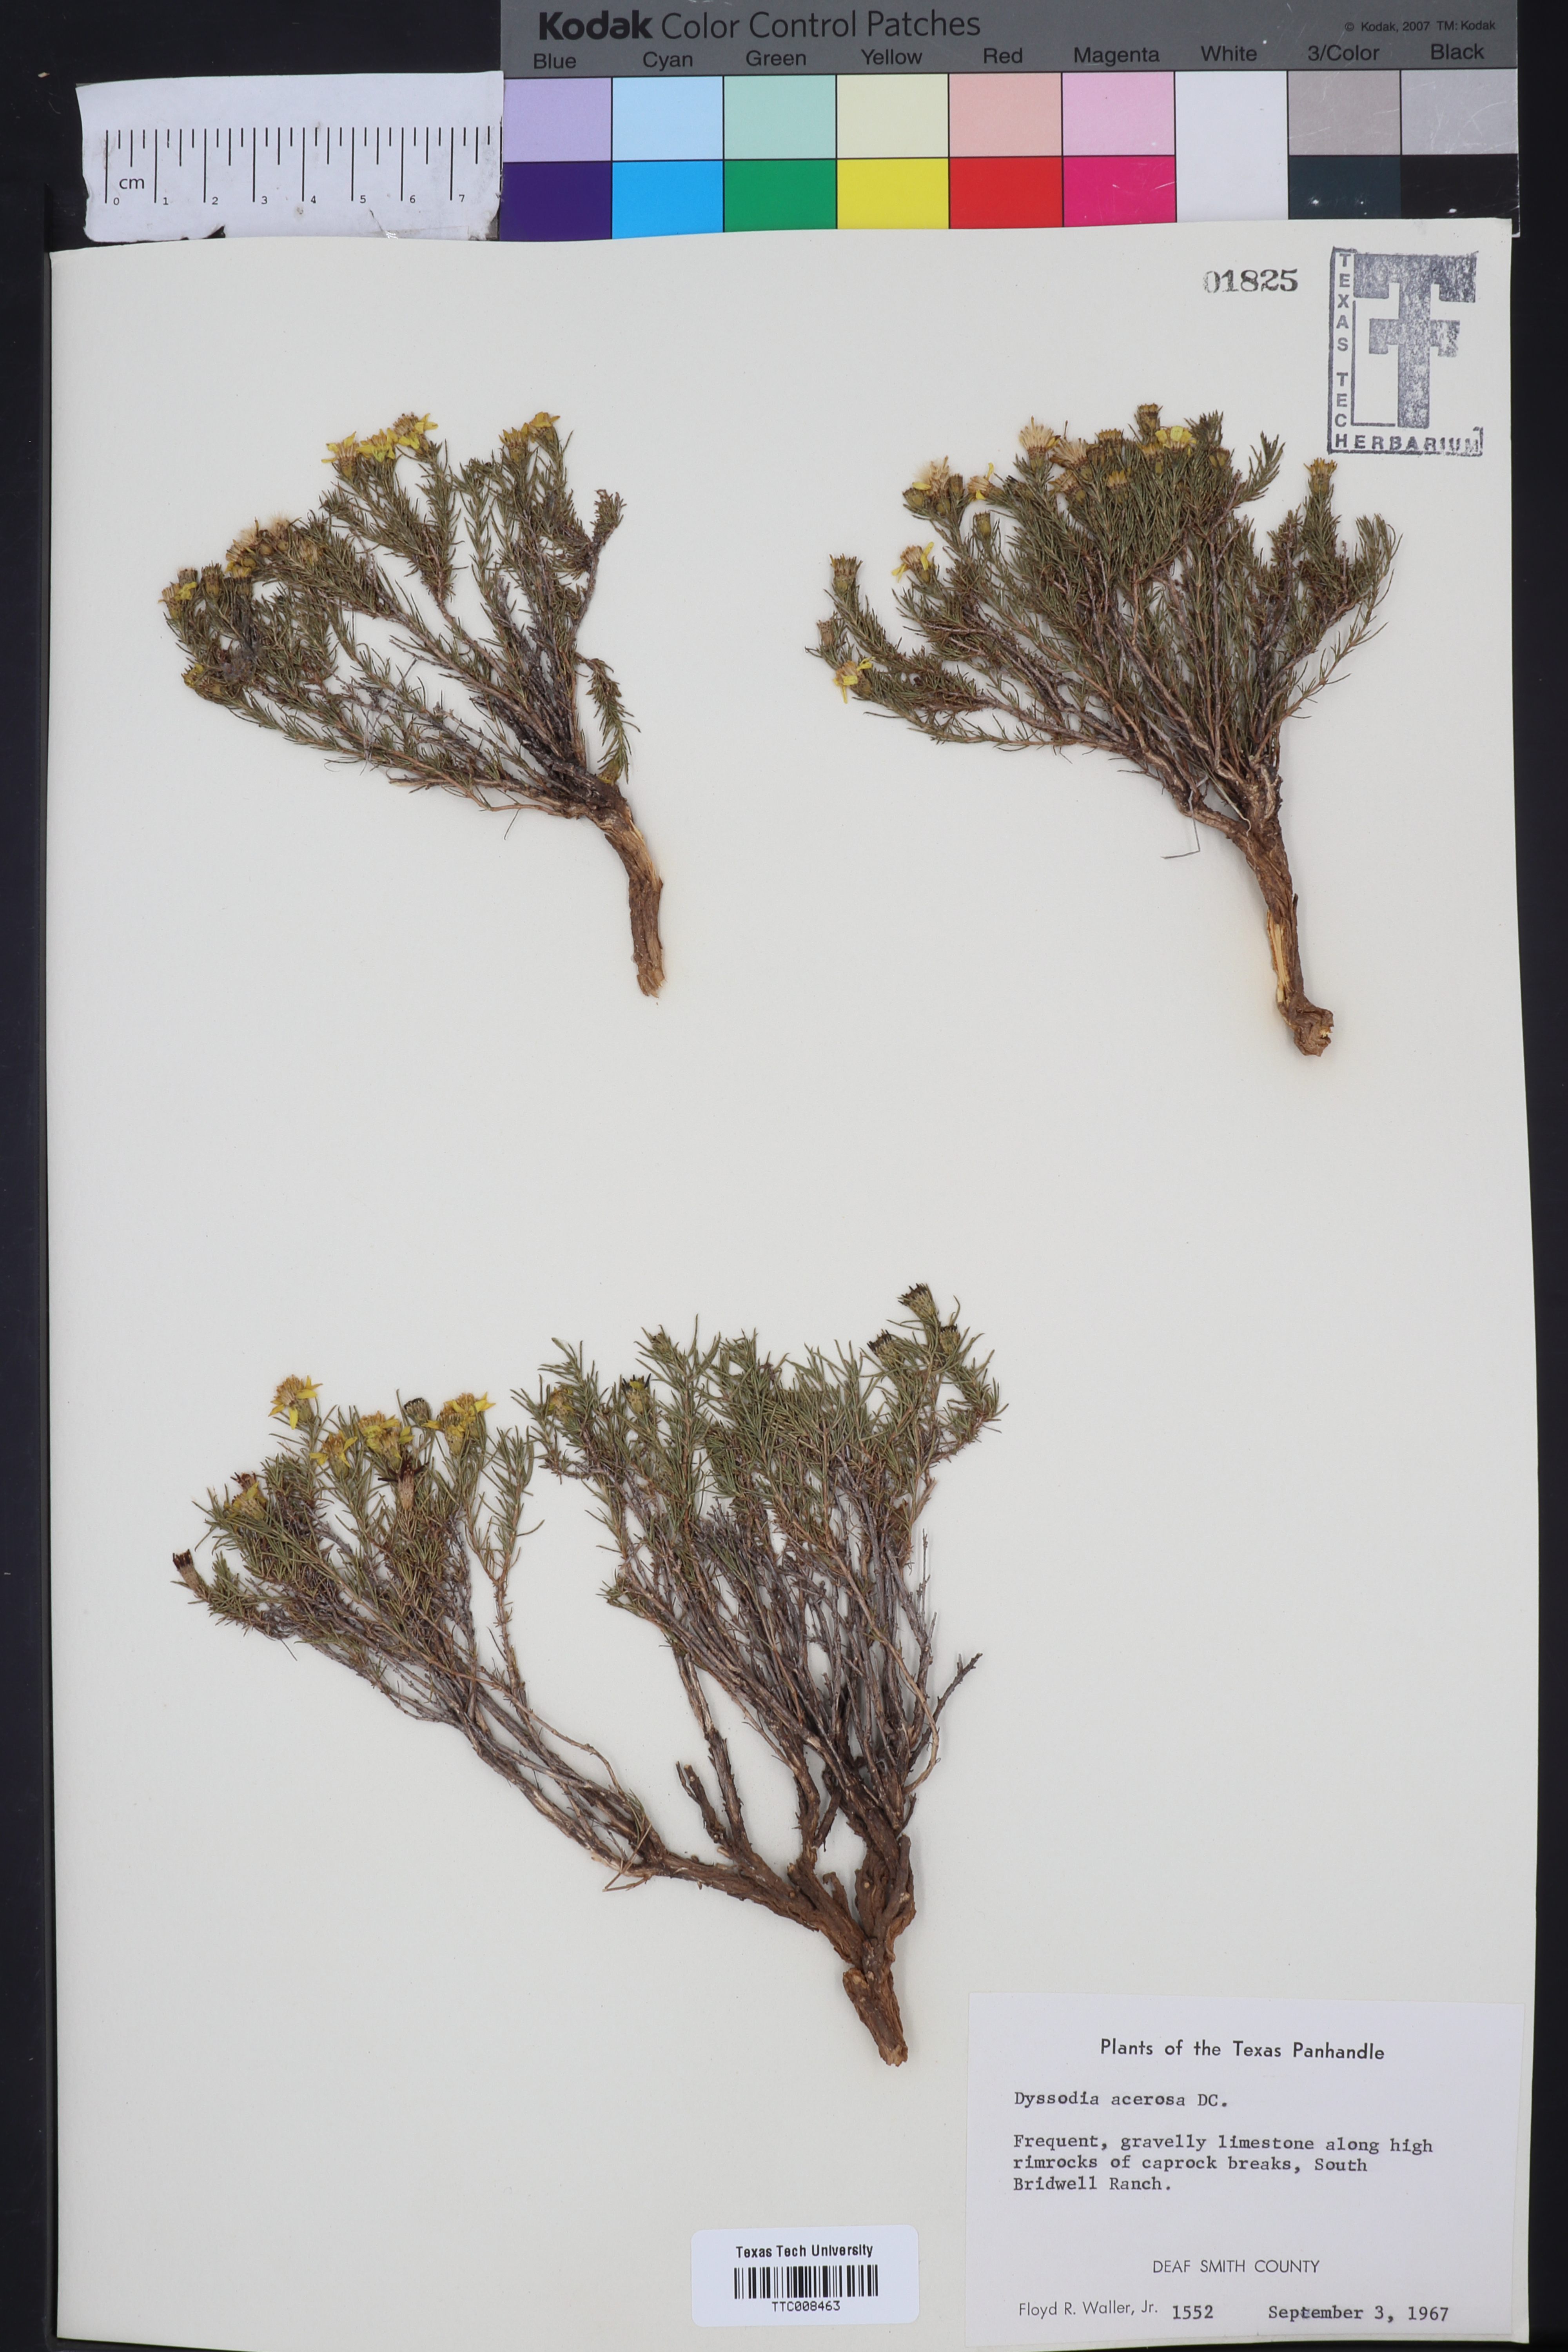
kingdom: Plantae
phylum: Tracheophyta
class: Magnoliopsida
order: Asterales
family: Asteraceae
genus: Thymophylla
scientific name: Thymophylla acerosa
